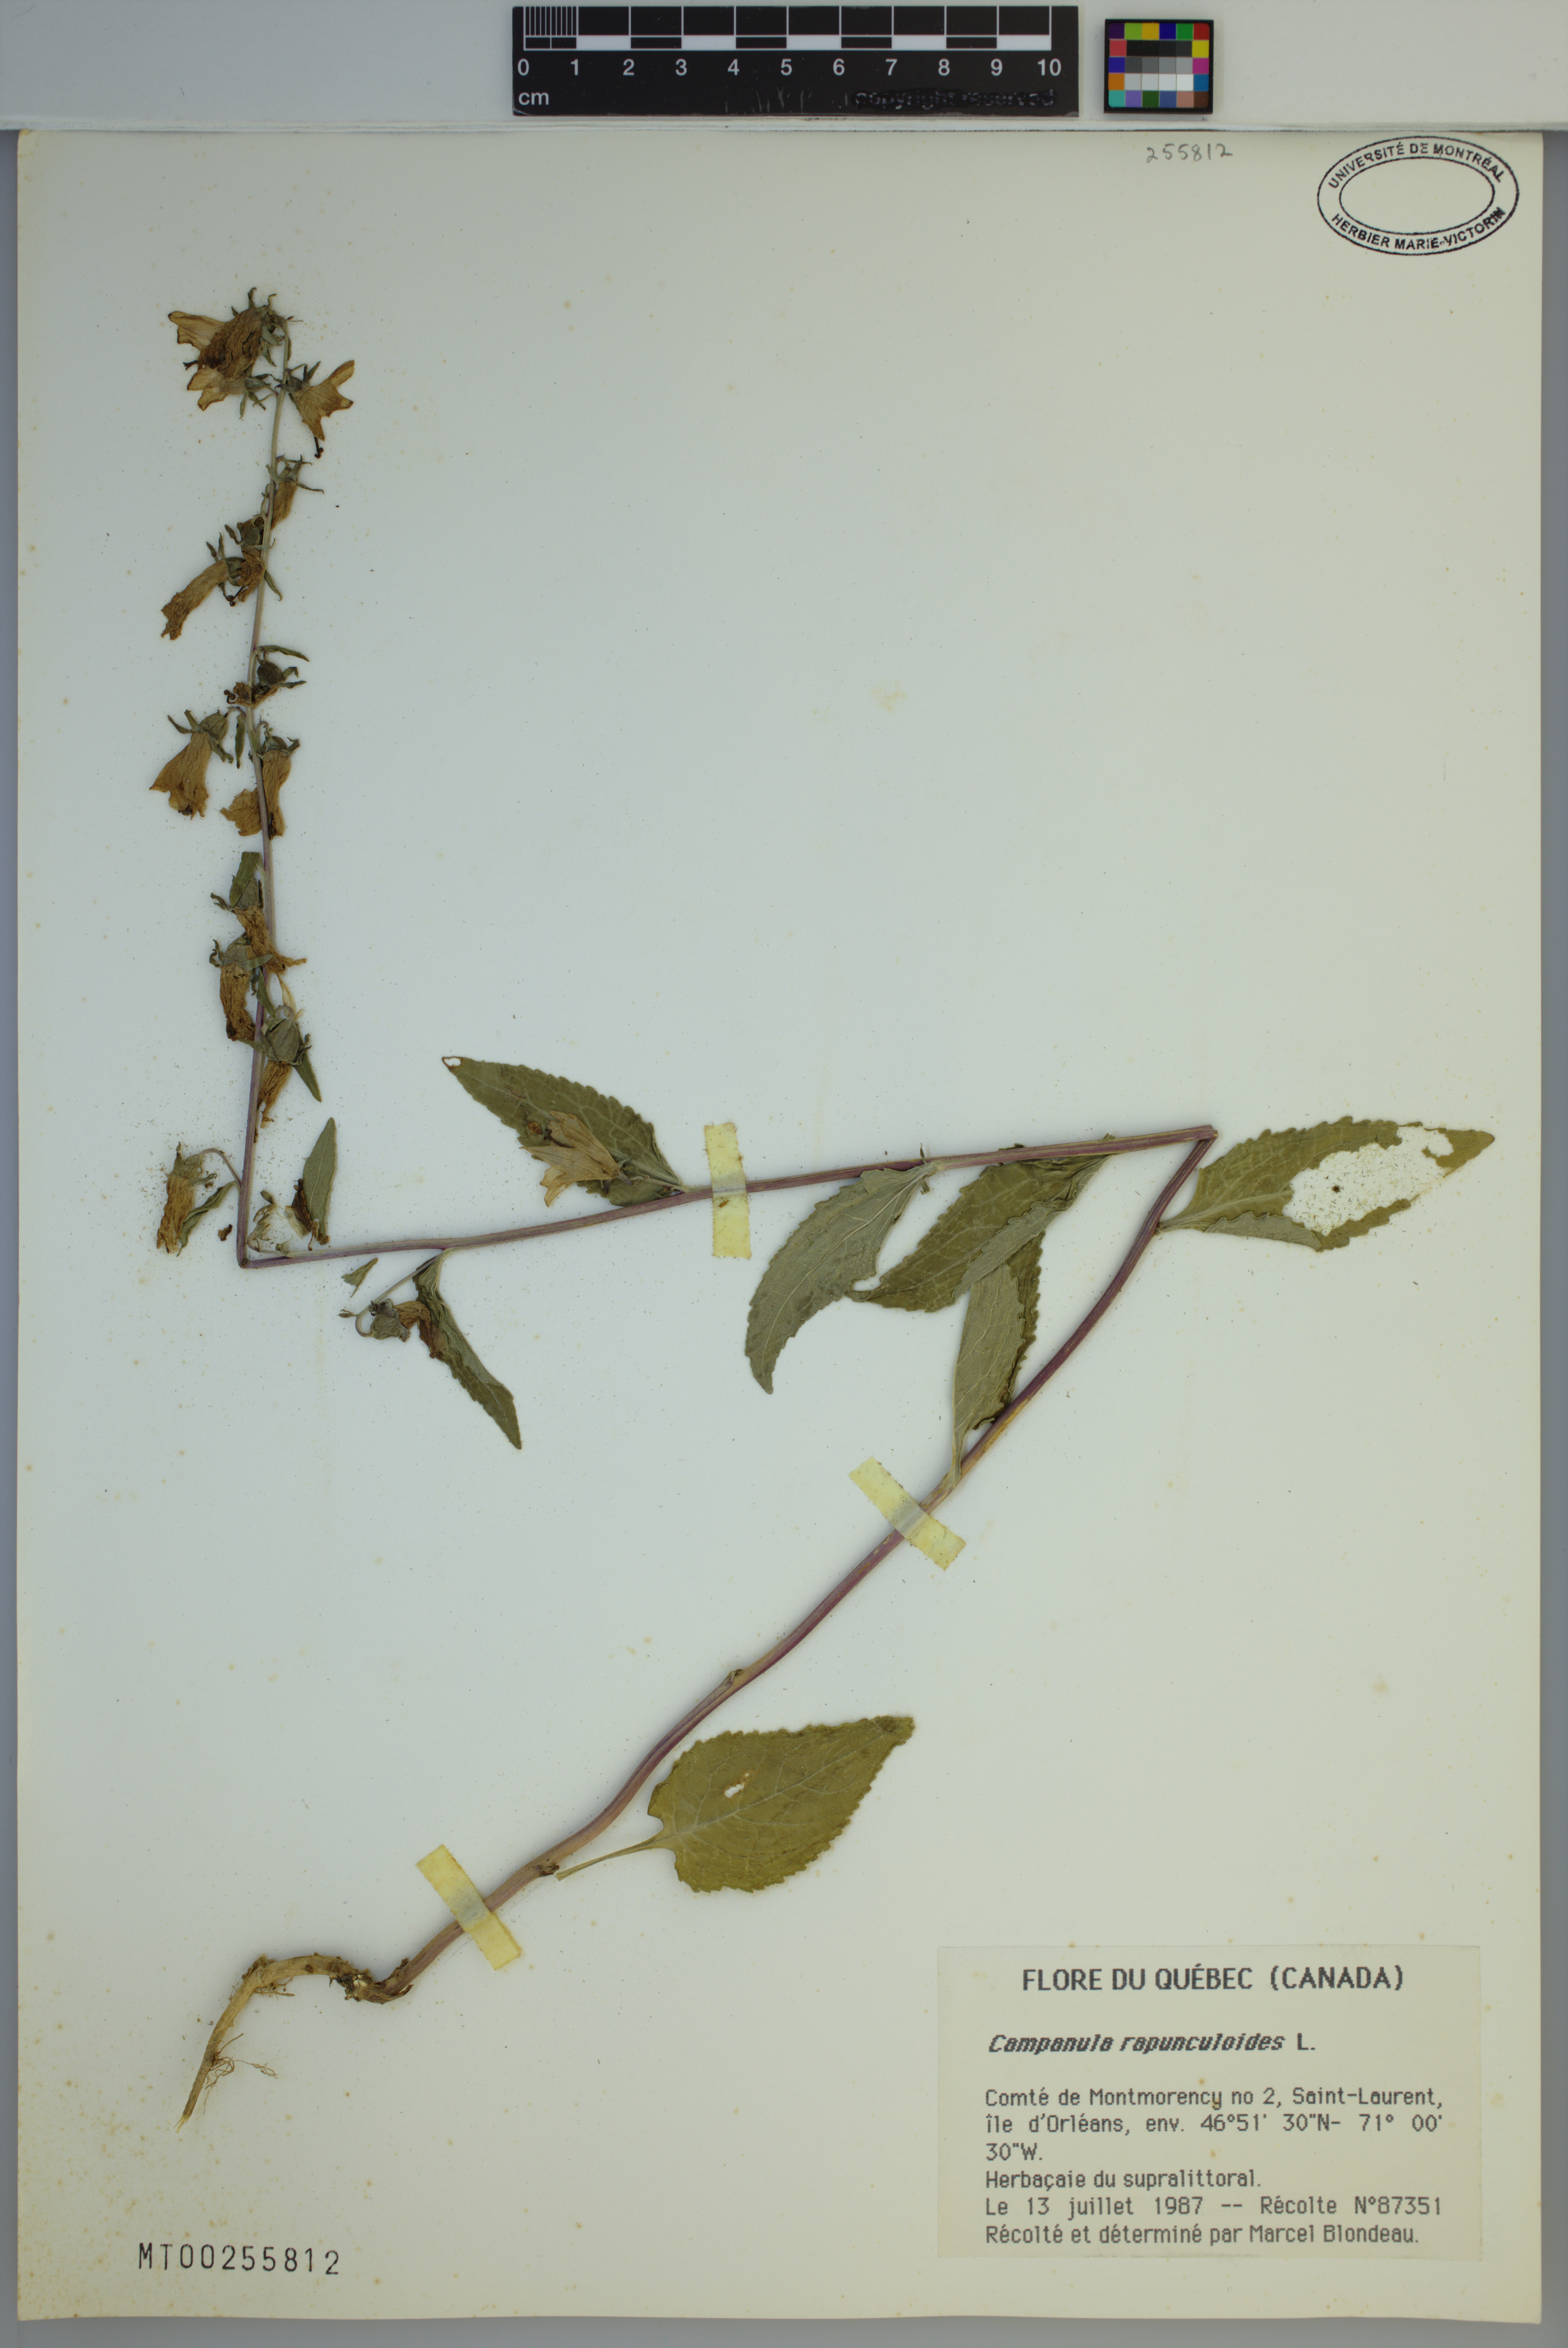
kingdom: Plantae
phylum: Tracheophyta
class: Magnoliopsida
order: Asterales
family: Campanulaceae
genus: Campanula
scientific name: Campanula rapunculoides
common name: Creeping bellflower
